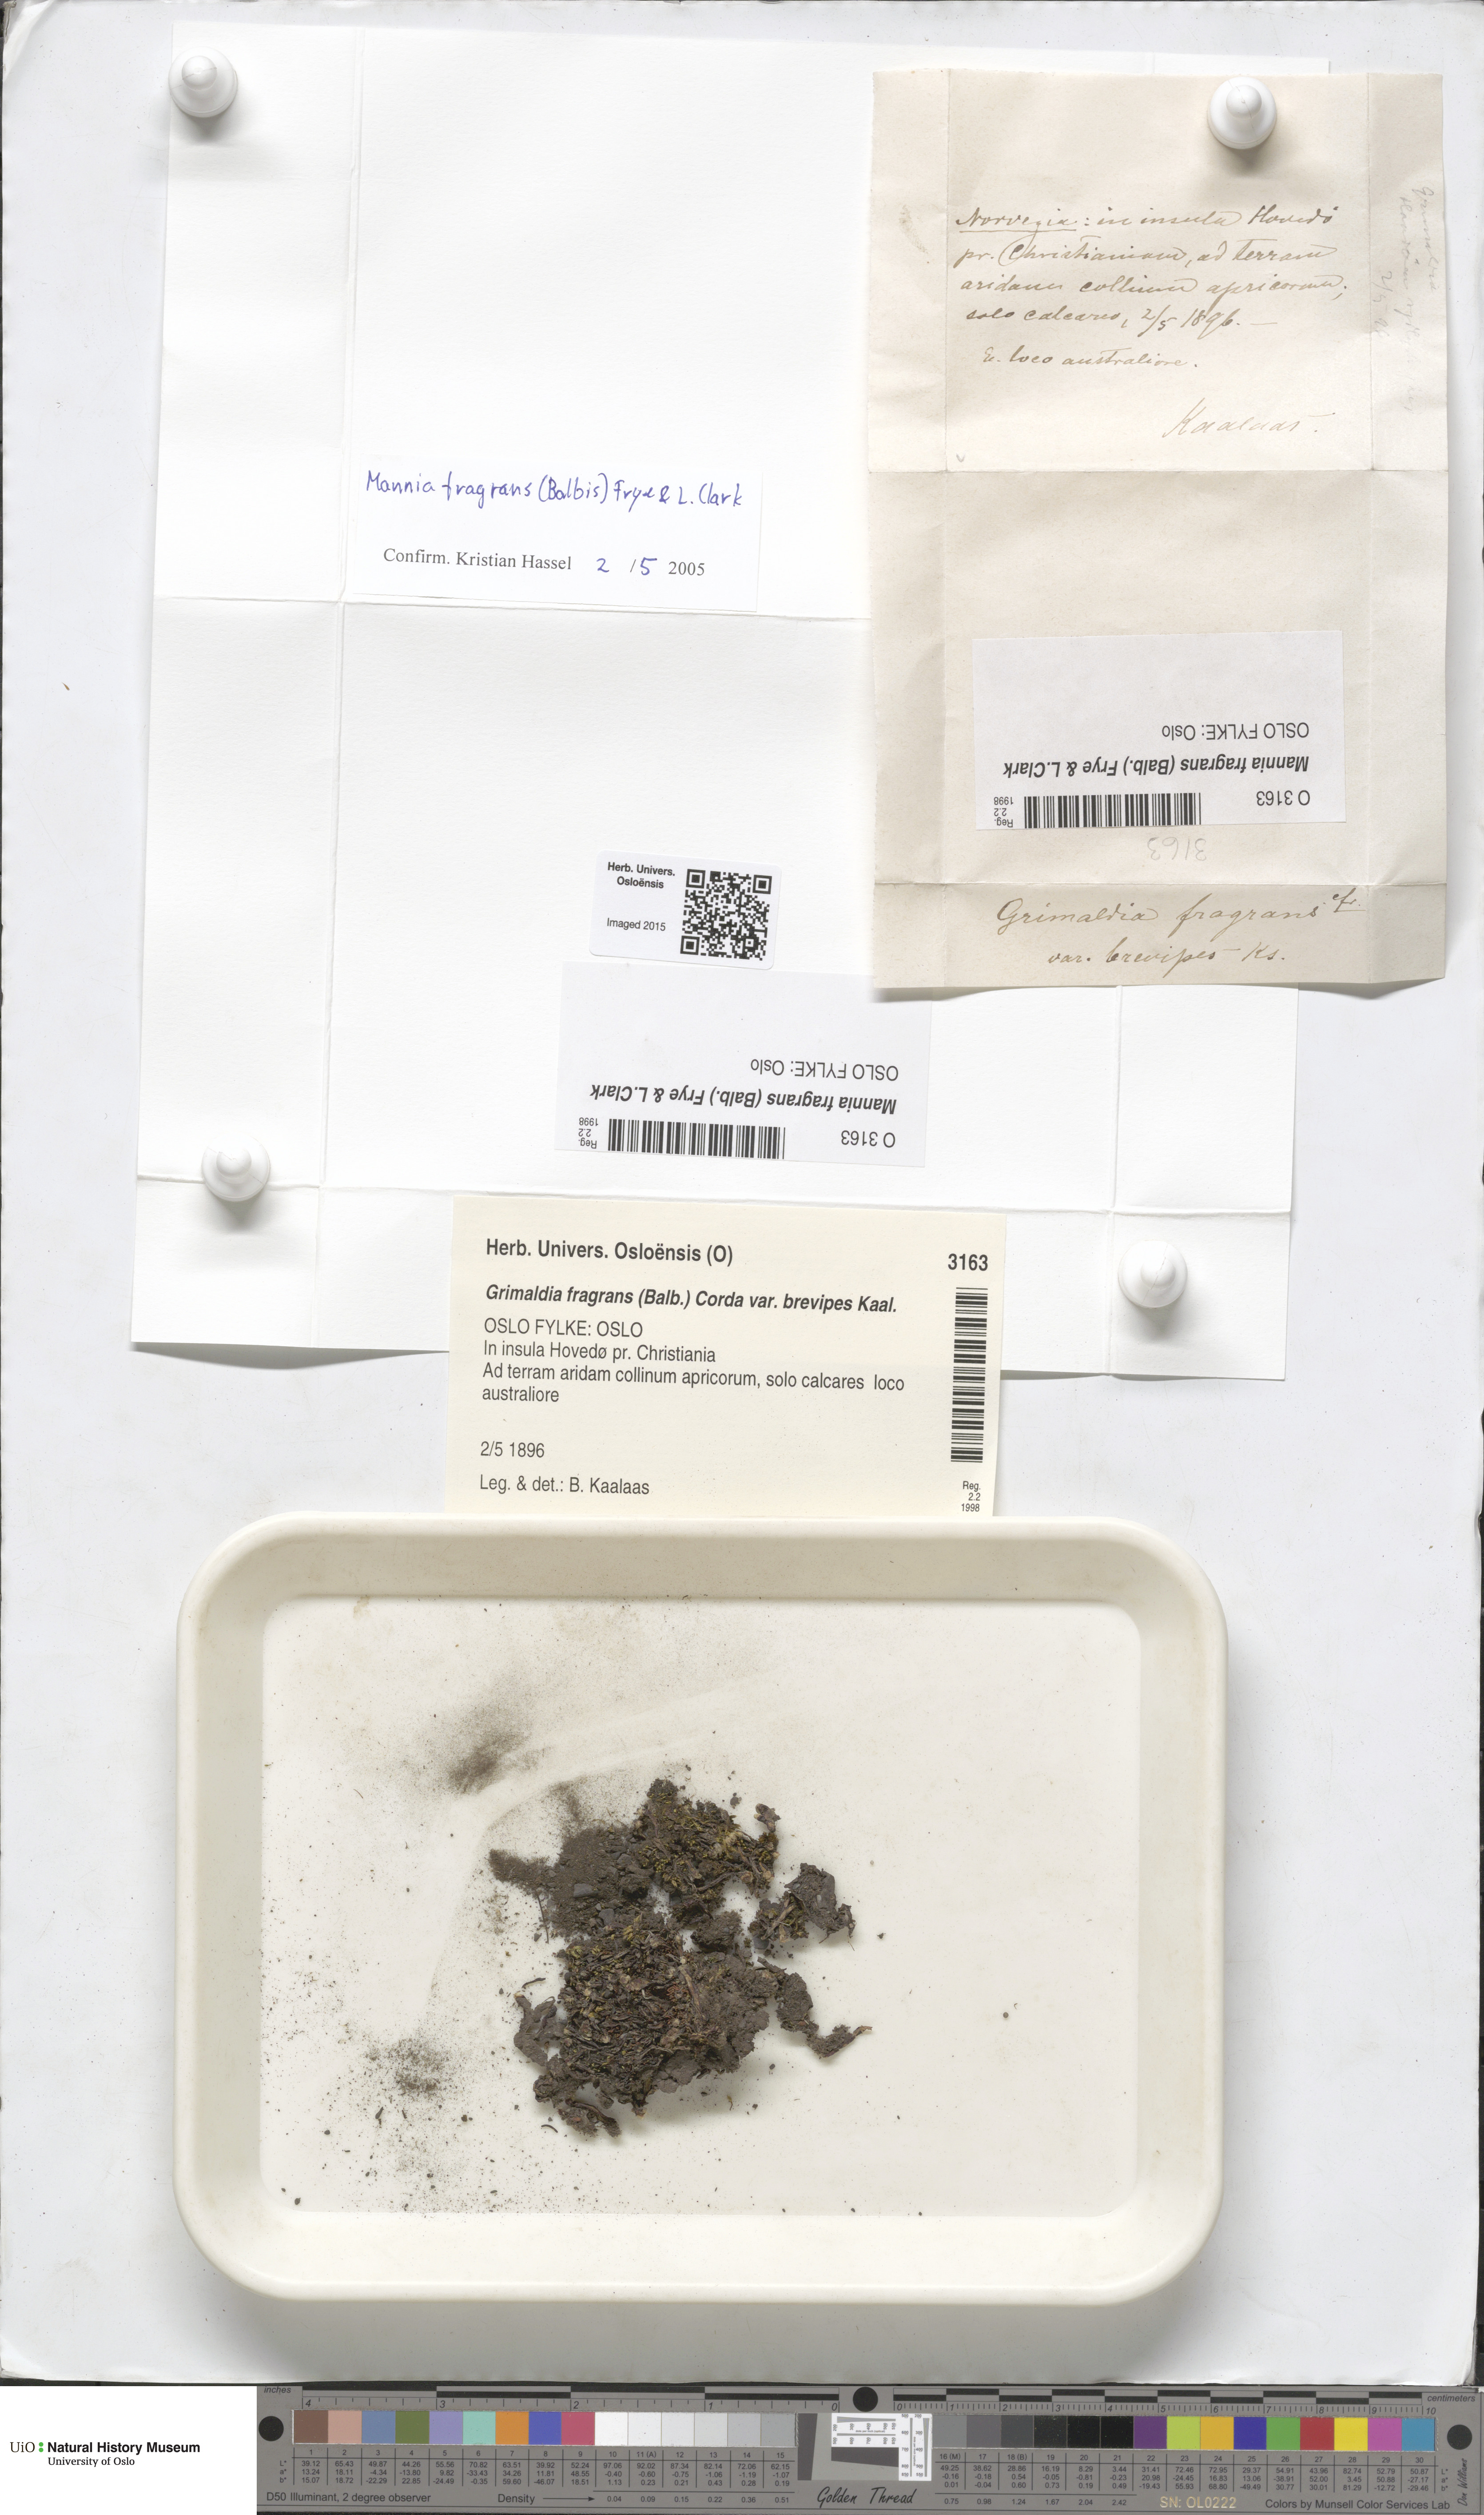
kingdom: Plantae
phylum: Marchantiophyta
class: Marchantiopsida
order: Marchantiales
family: Aytoniaceae
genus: Mannia
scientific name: Mannia fragrans
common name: Fragrant macewort
